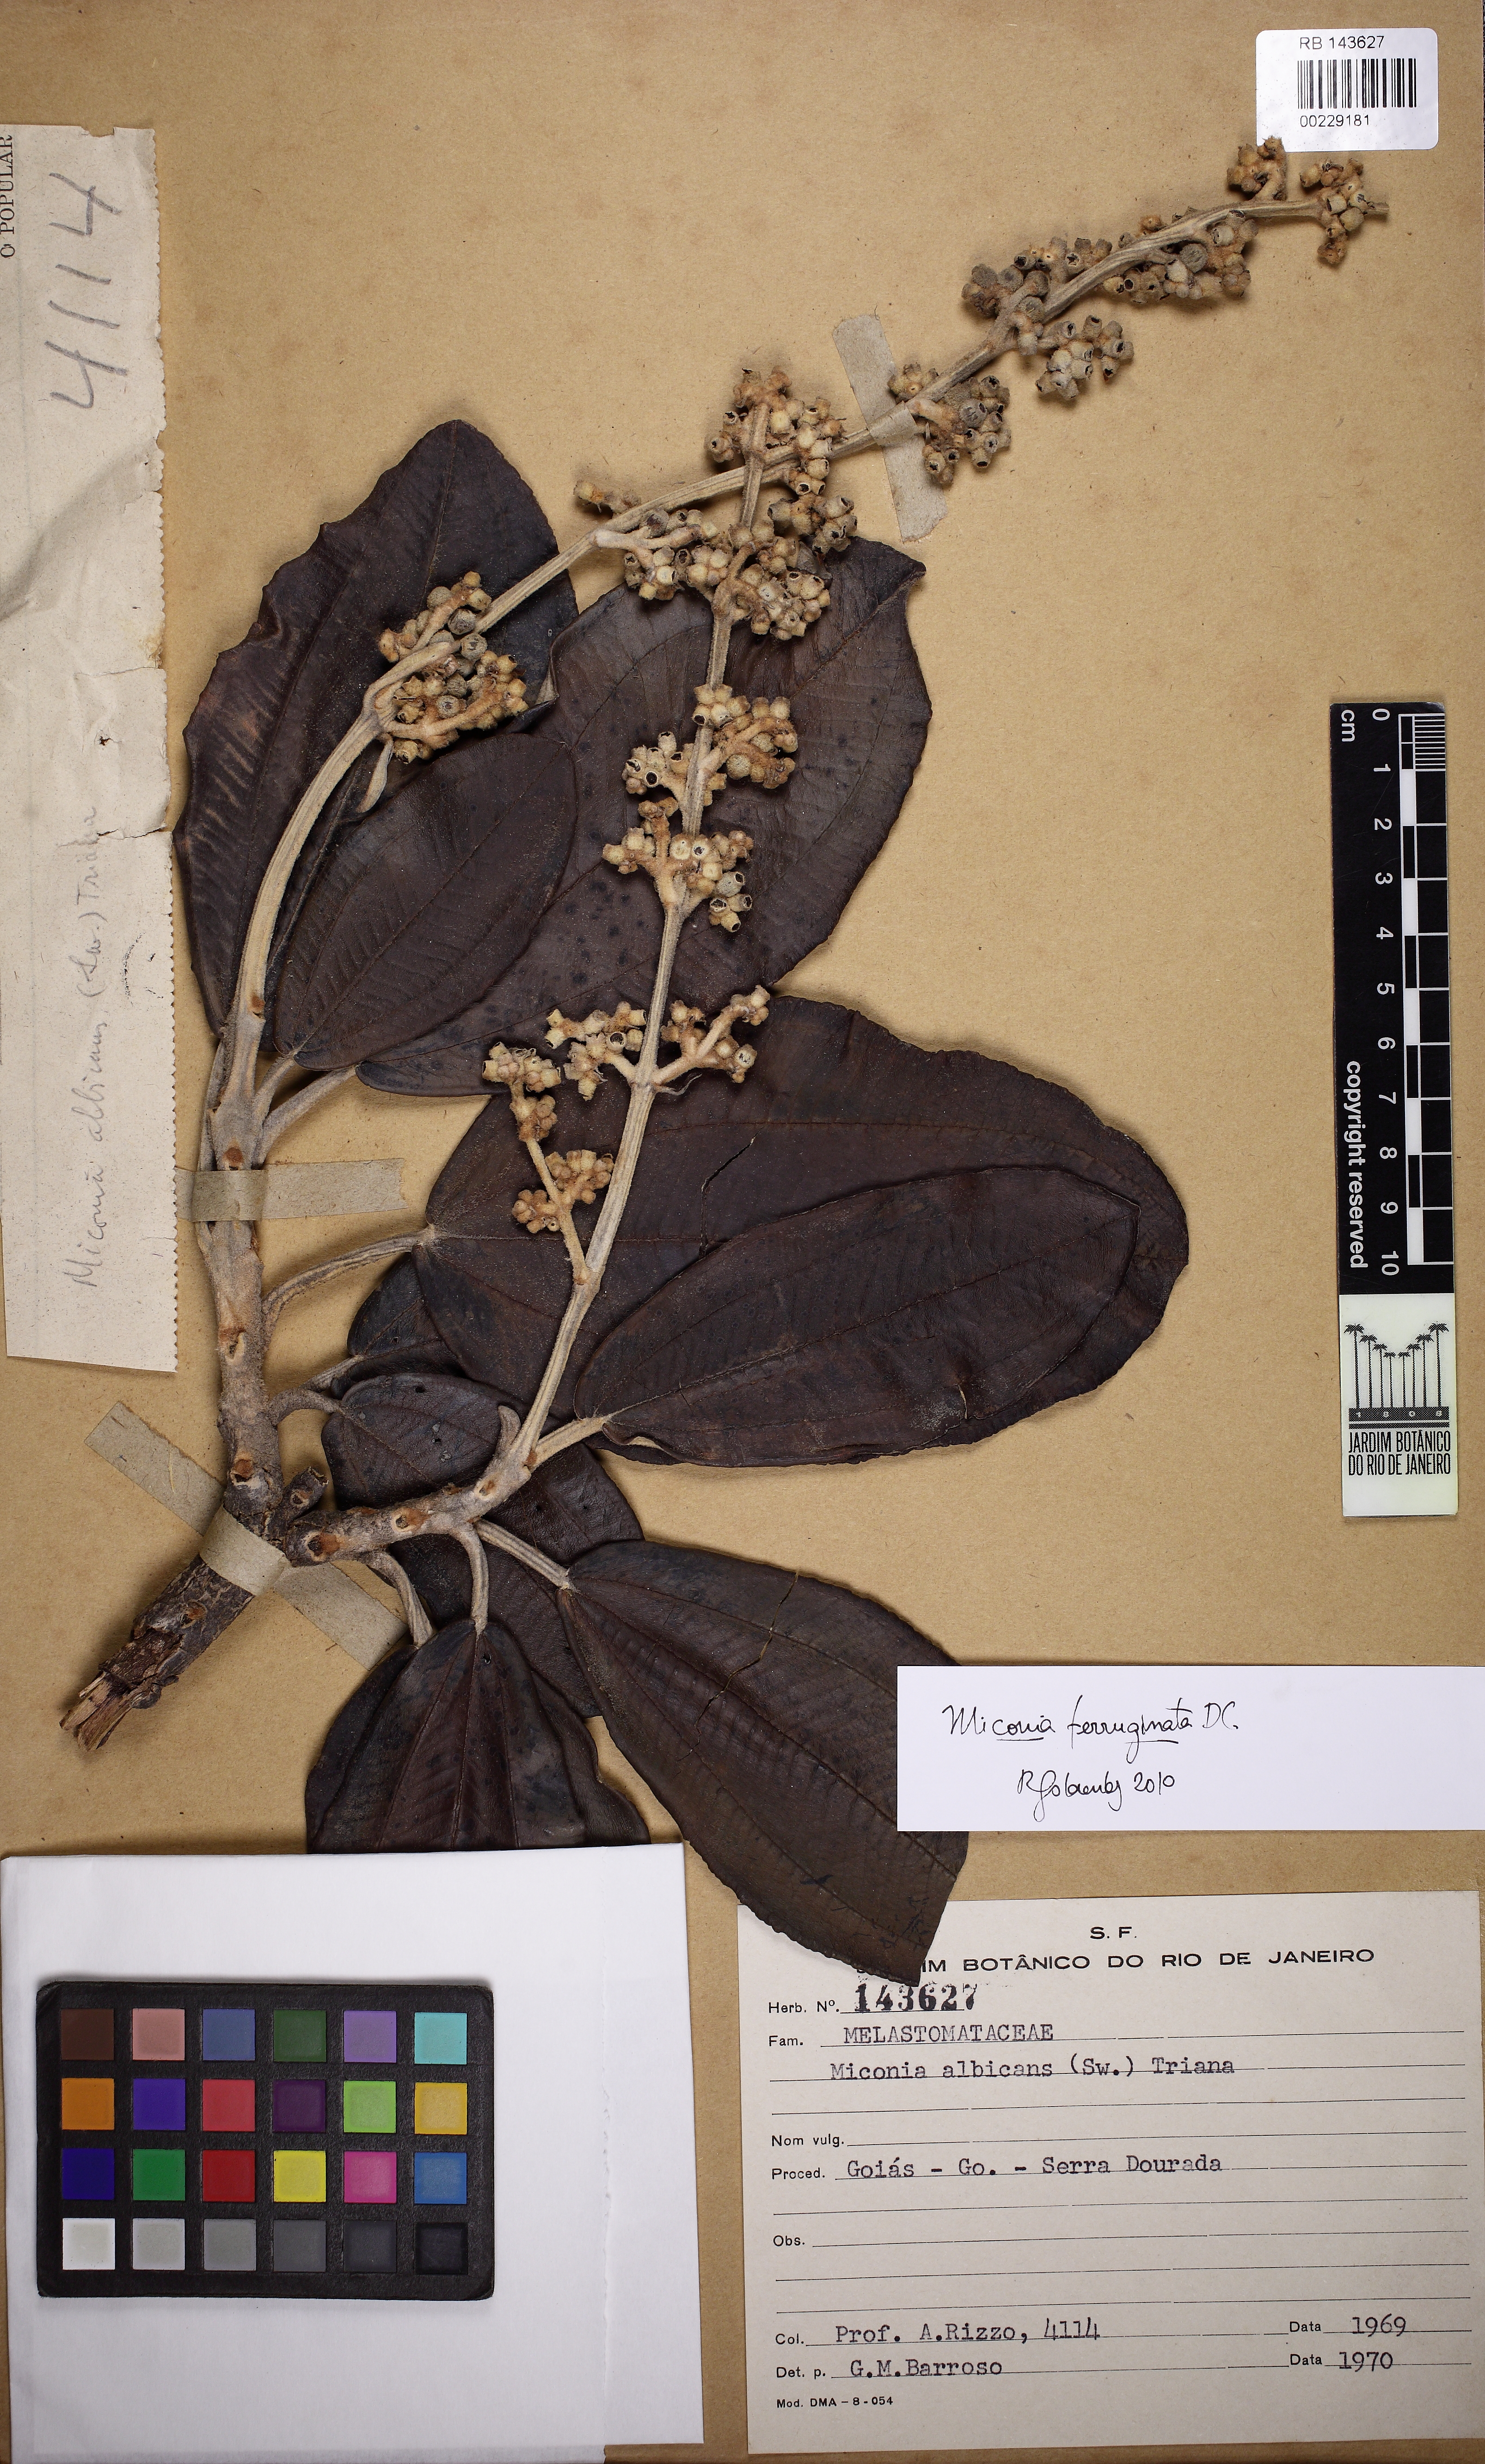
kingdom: Plantae
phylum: Tracheophyta
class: Magnoliopsida
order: Myrtales
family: Melastomataceae
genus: Miconia
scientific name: Miconia ferruginata
